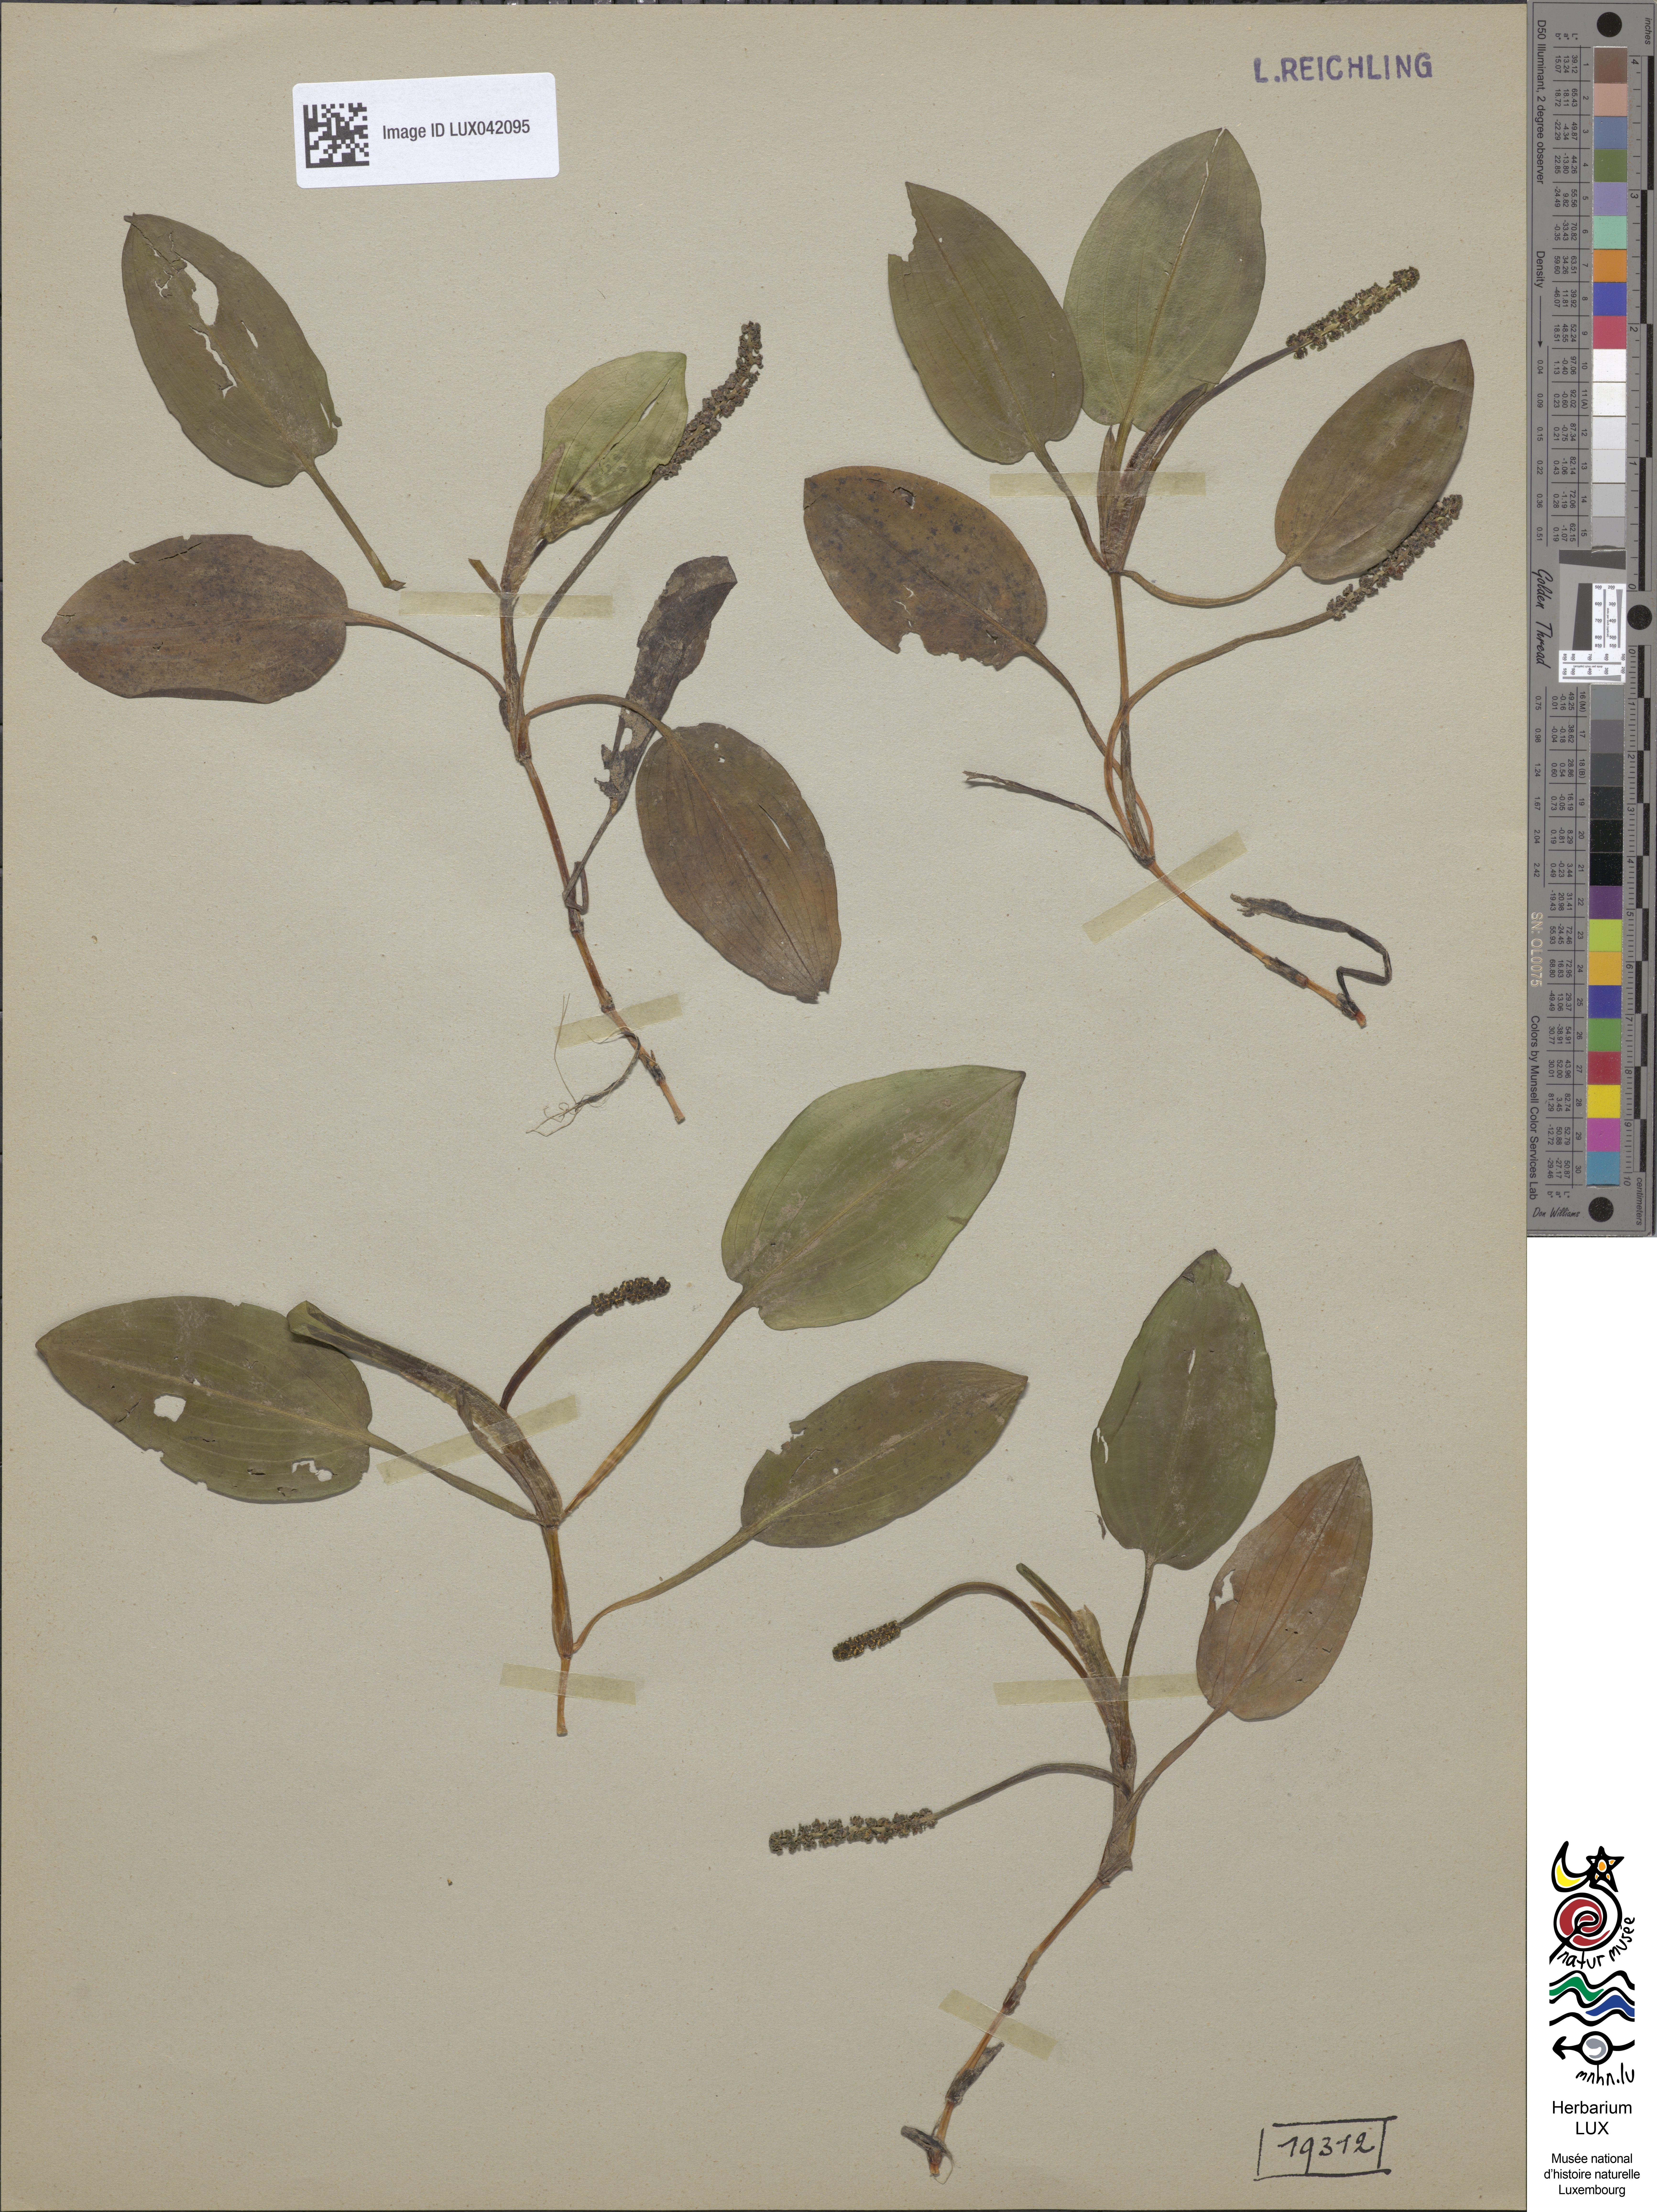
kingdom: Plantae
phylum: Tracheophyta
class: Liliopsida
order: Alismatales
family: Potamogetonaceae
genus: Potamogeton
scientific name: Potamogeton polygonifolius
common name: Bog pondweed
